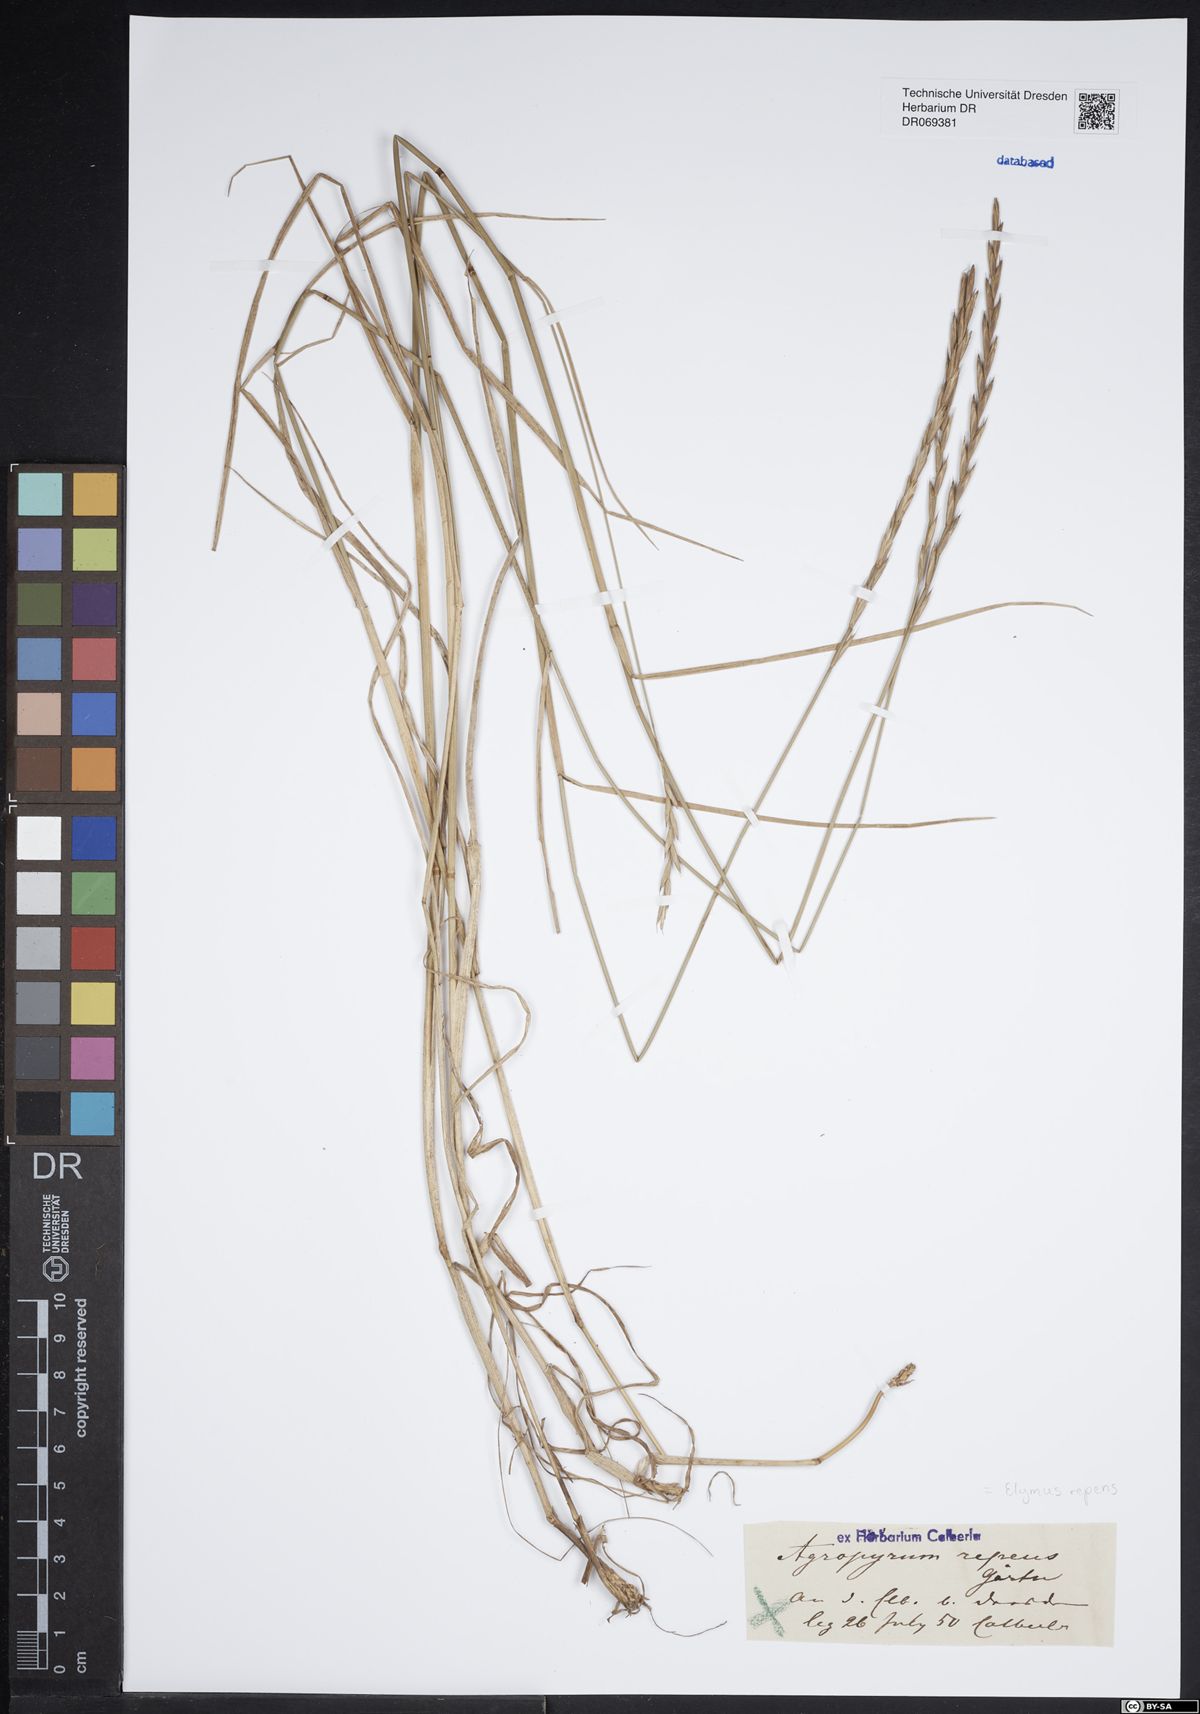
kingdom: Plantae
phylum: Tracheophyta
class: Liliopsida
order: Poales
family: Poaceae
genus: Elymus
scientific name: Elymus repens
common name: Quackgrass
